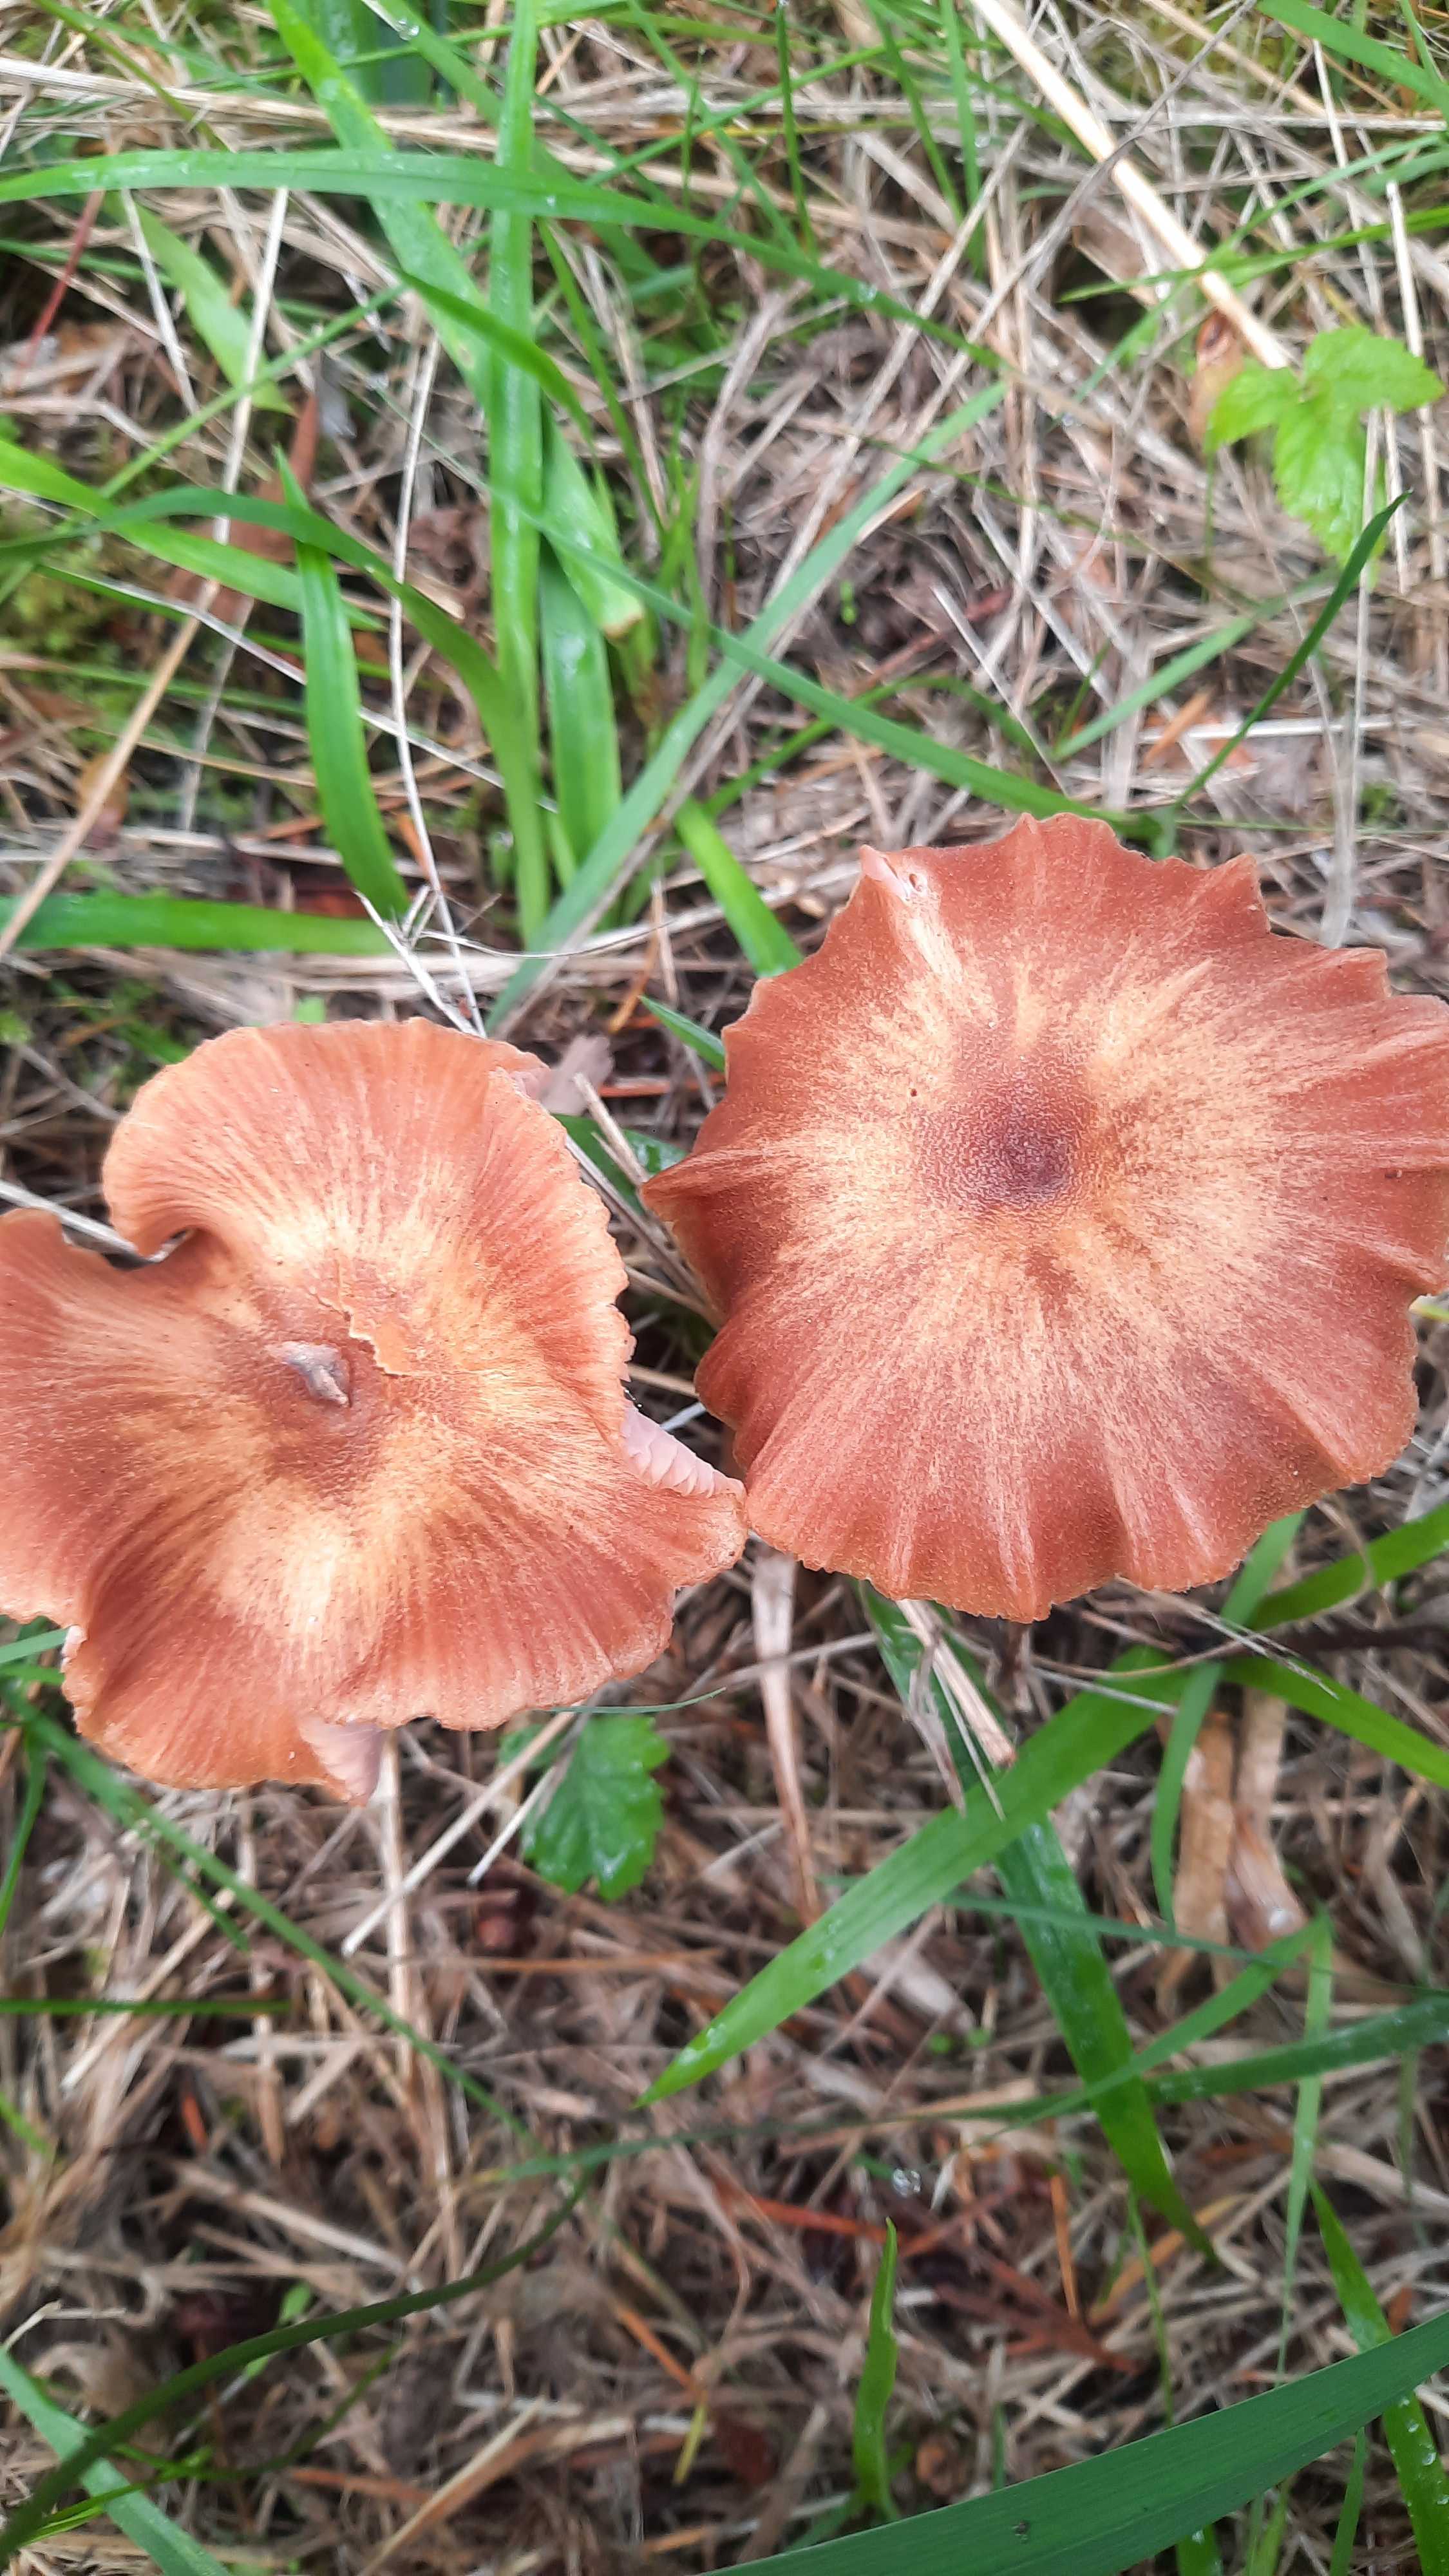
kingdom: Fungi
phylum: Basidiomycota
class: Agaricomycetes
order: Agaricales
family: Hydnangiaceae
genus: Laccaria
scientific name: Laccaria proxima
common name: stor ametysthat
